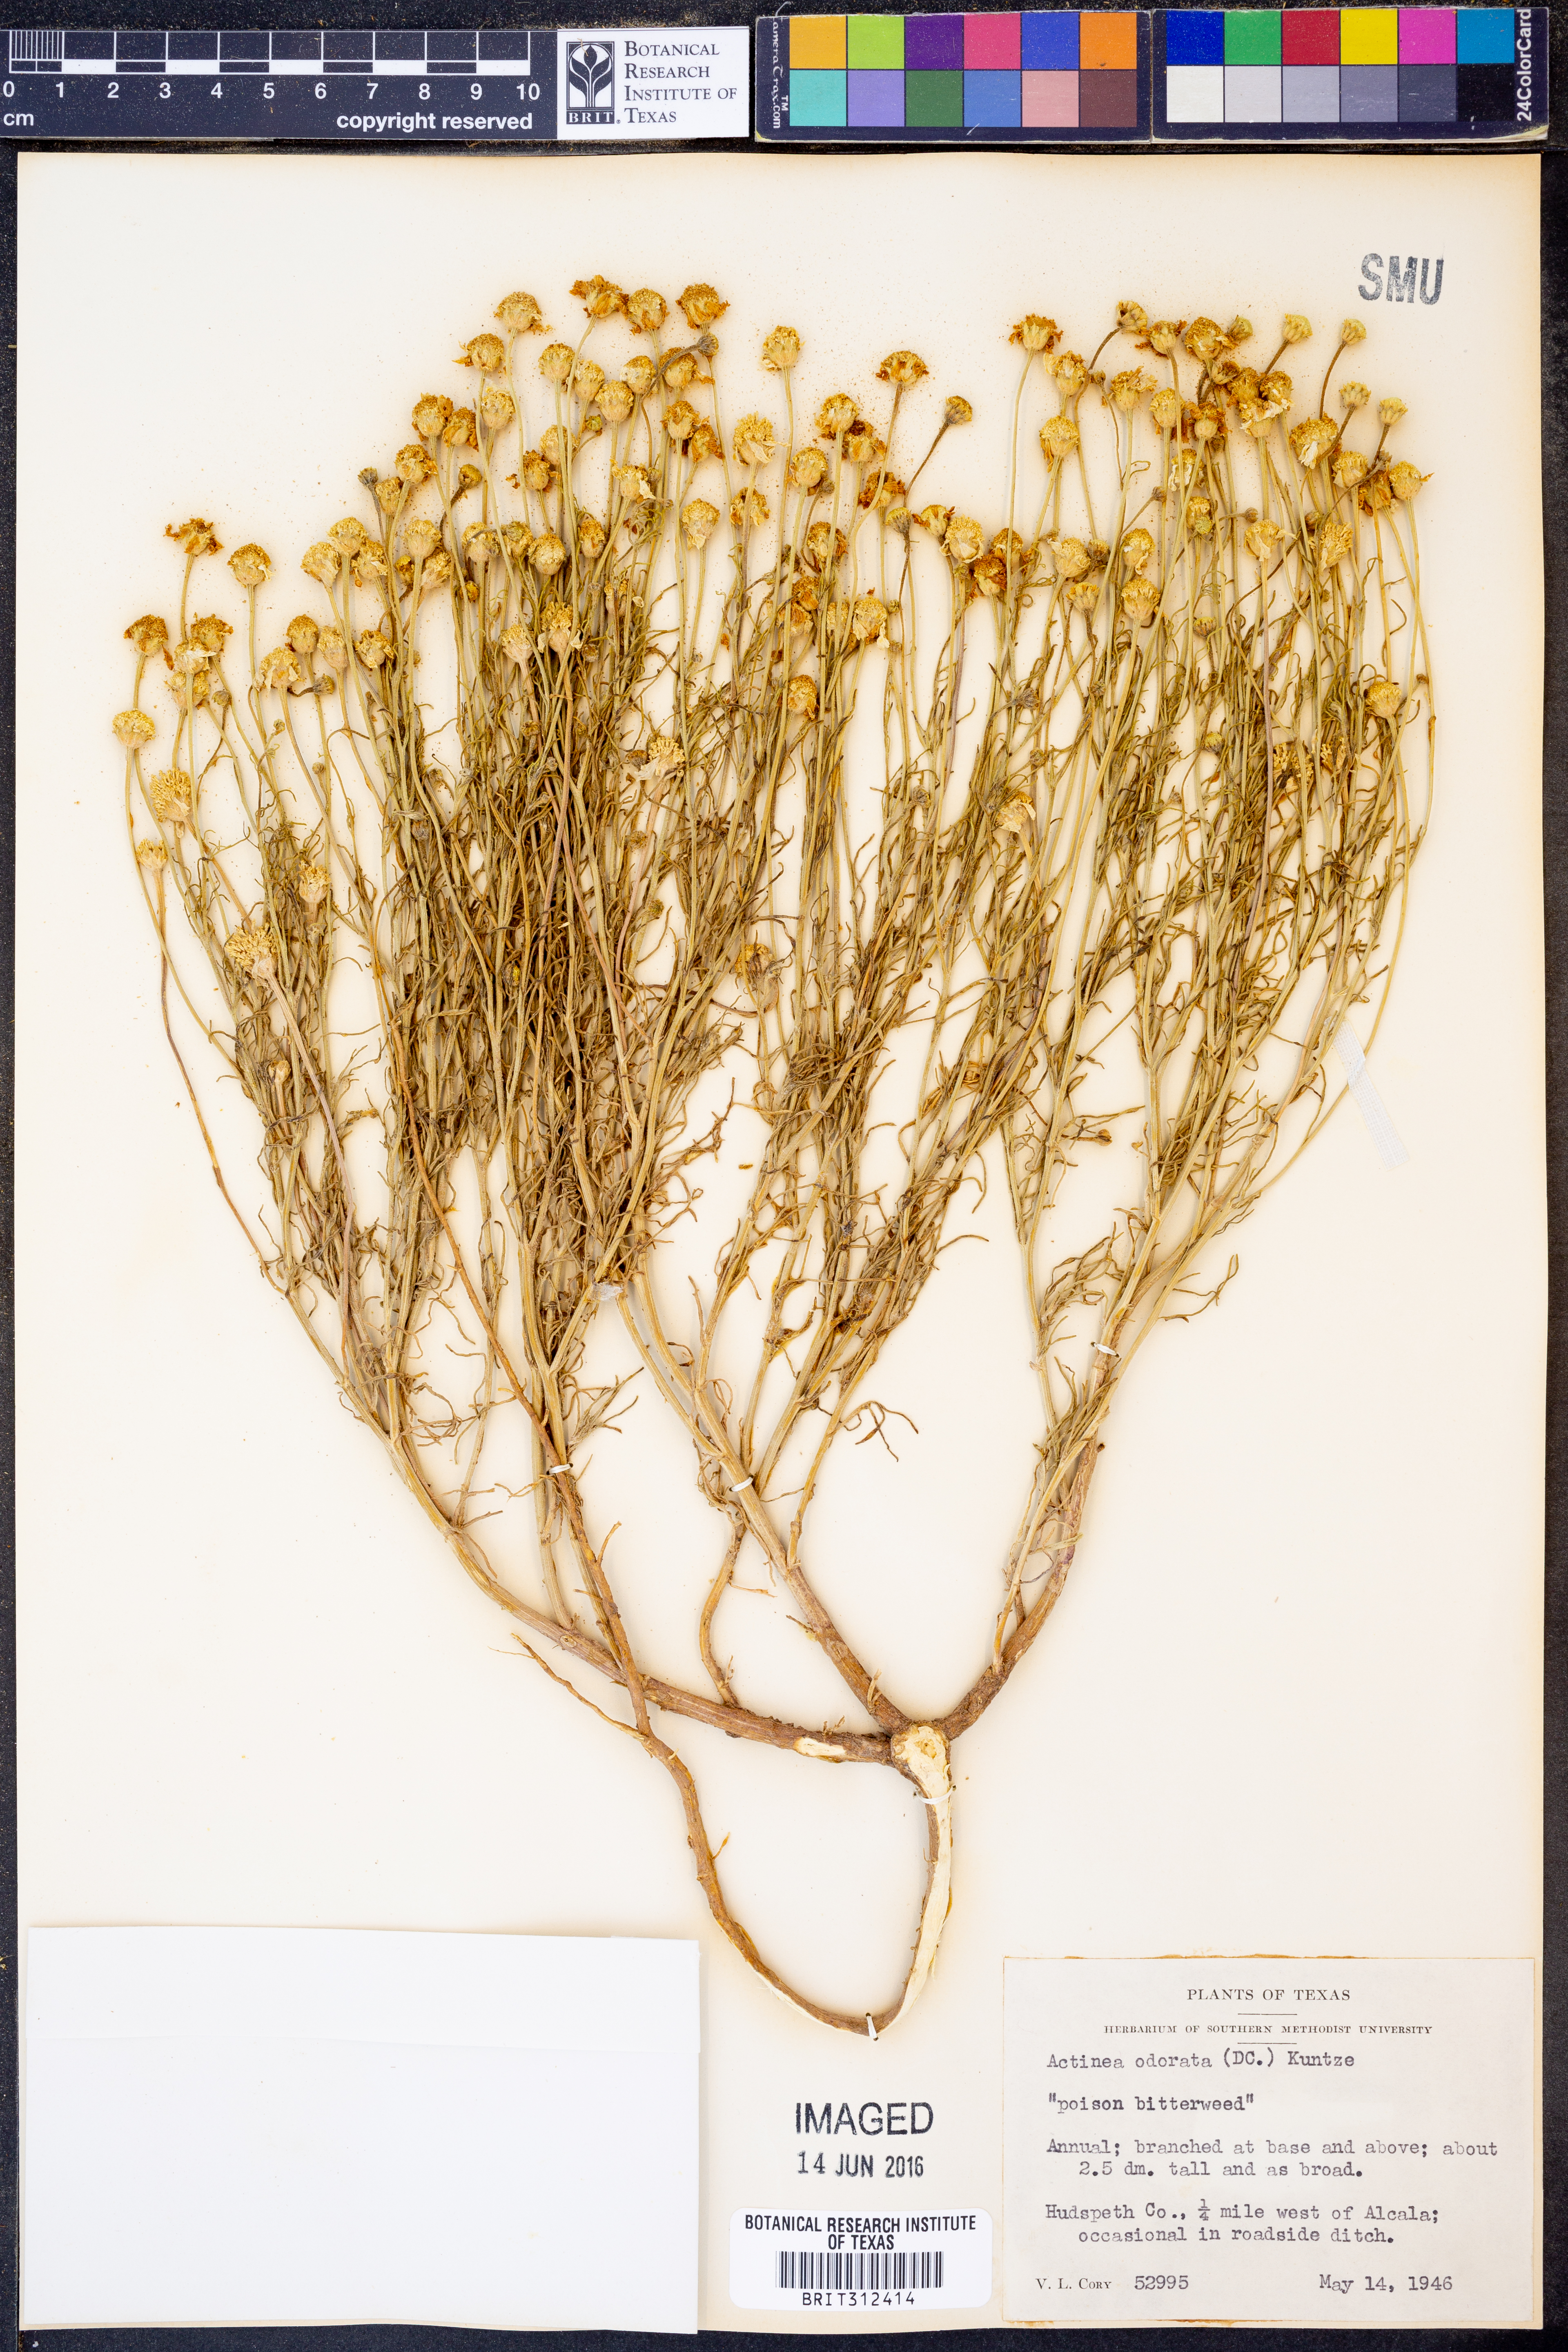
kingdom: Plantae
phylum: Tracheophyta
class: Magnoliopsida
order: Asterales
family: Asteraceae
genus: Hymenoxys
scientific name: Hymenoxys odorata
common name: Bitter rubberweed
